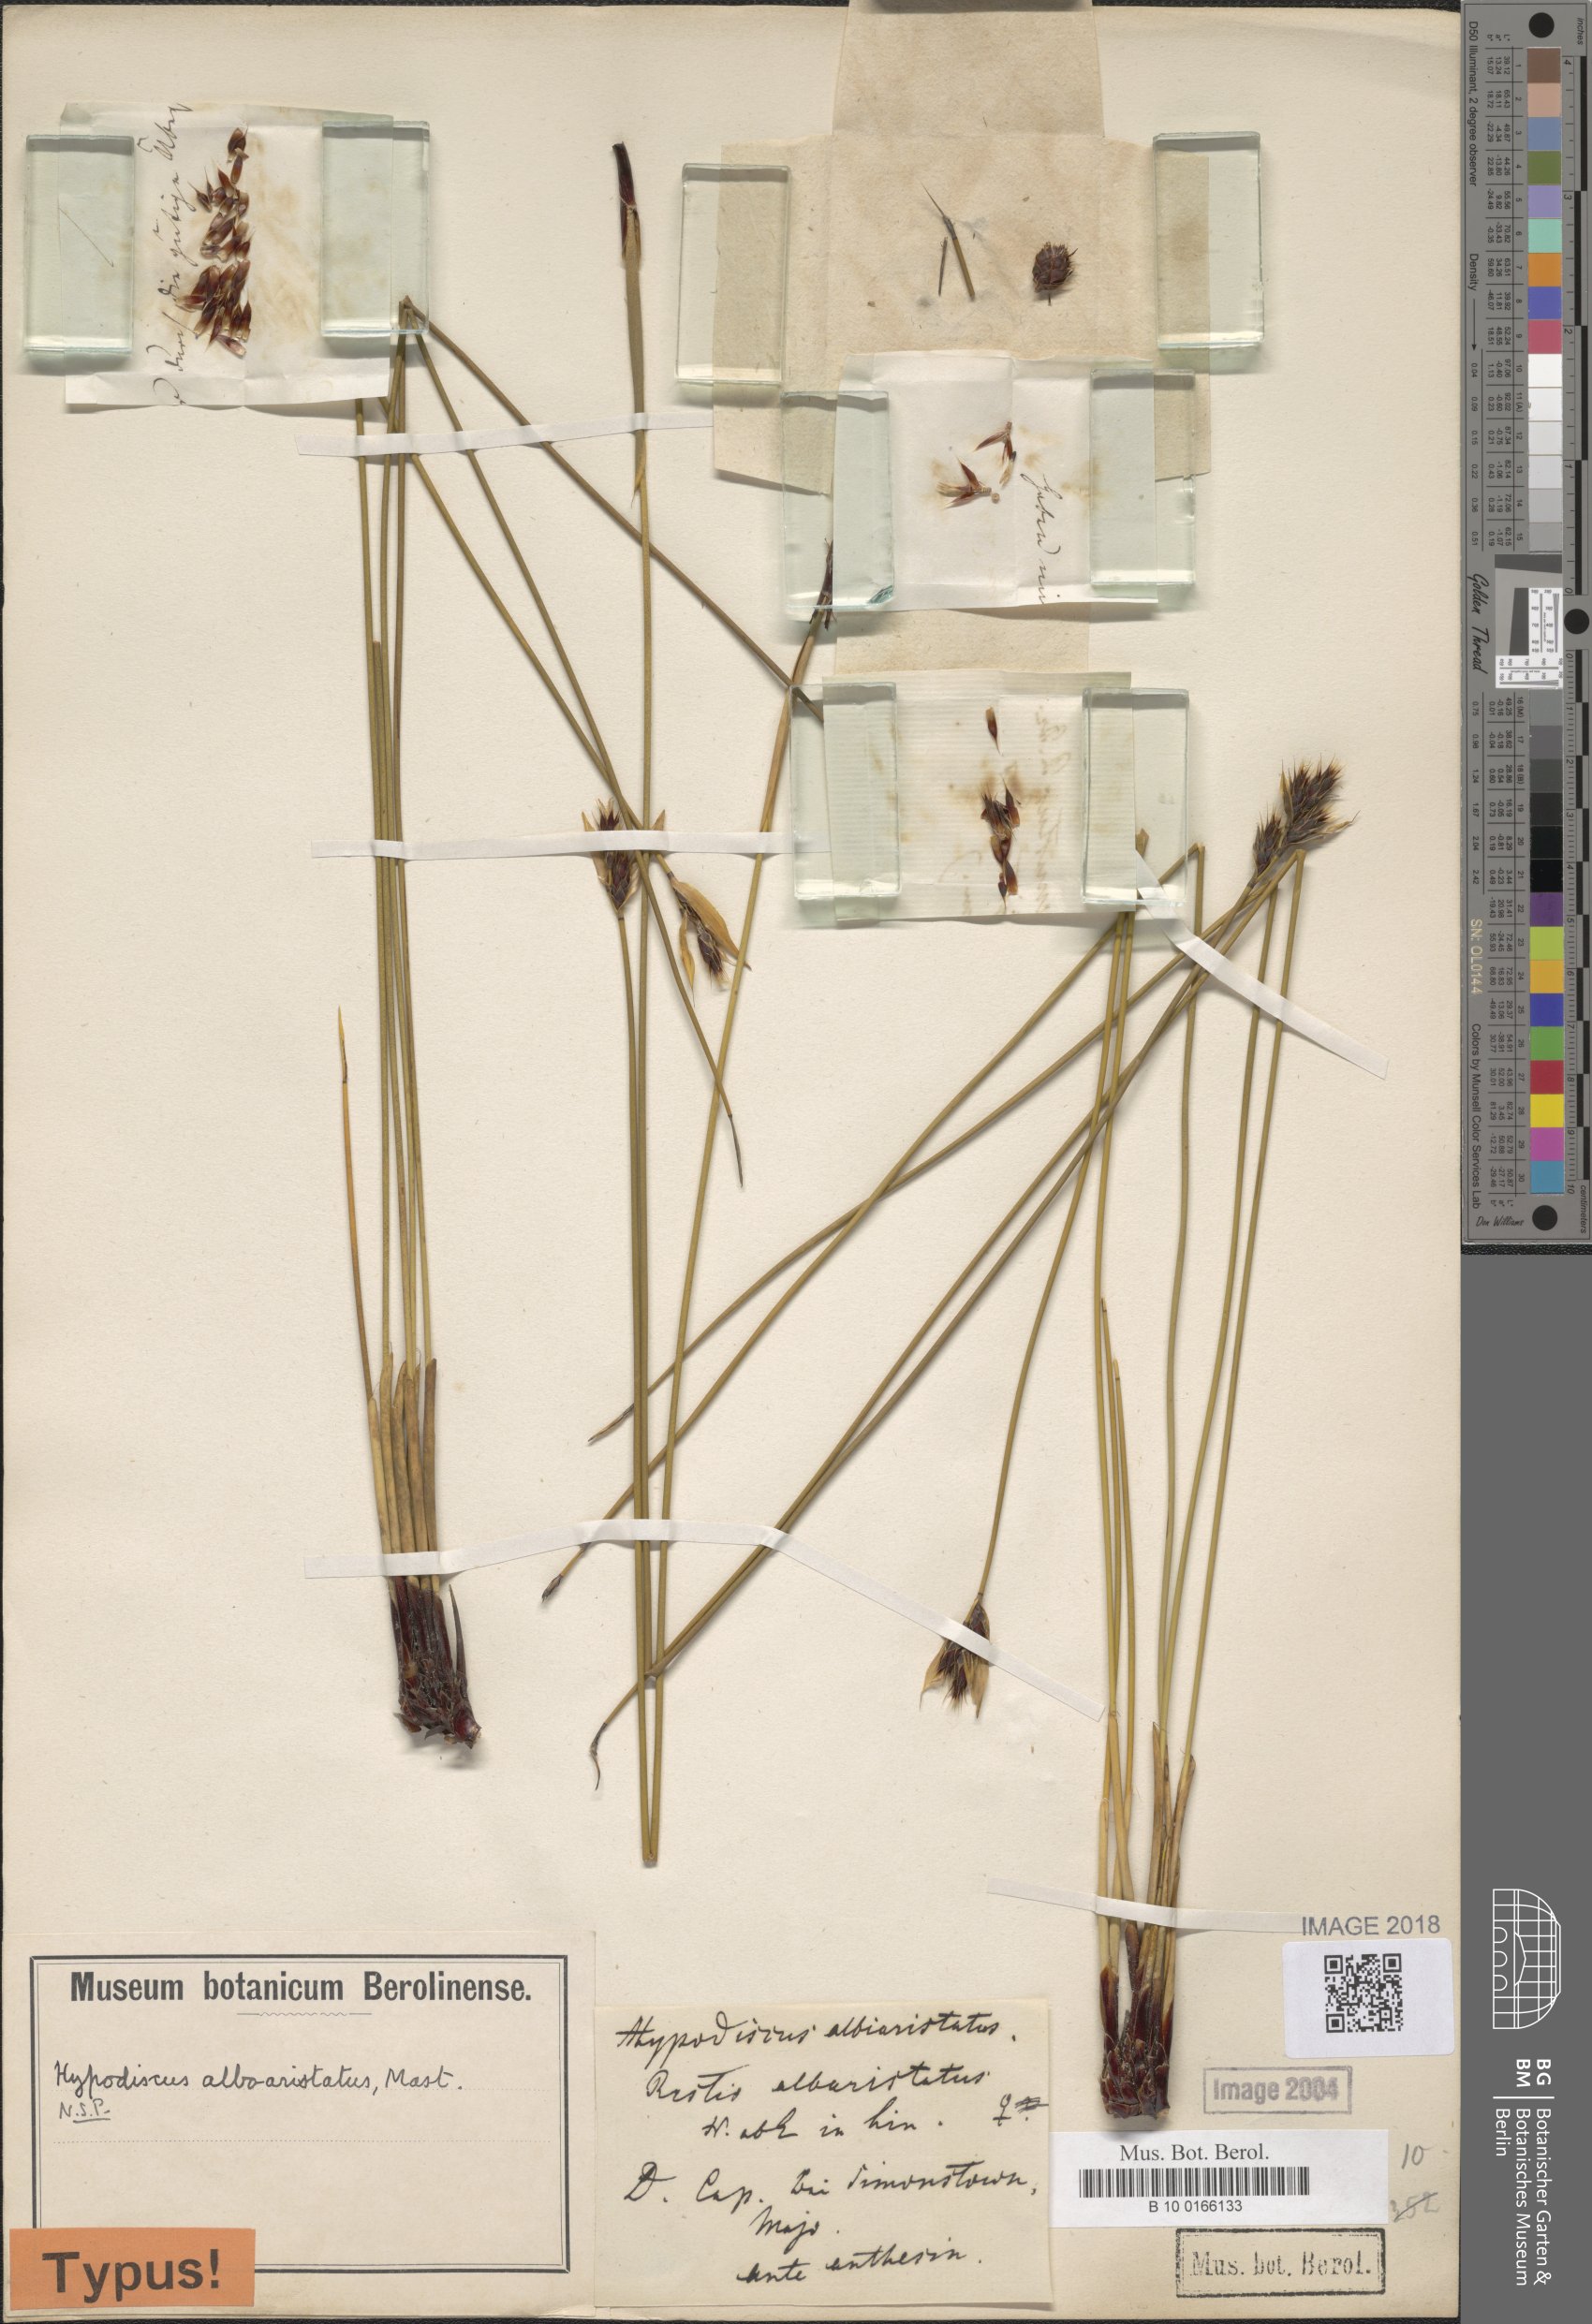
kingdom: Plantae
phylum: Tracheophyta
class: Liliopsida
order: Poales
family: Restionaceae
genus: Hypodiscus
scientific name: Hypodiscus alboaristatus
